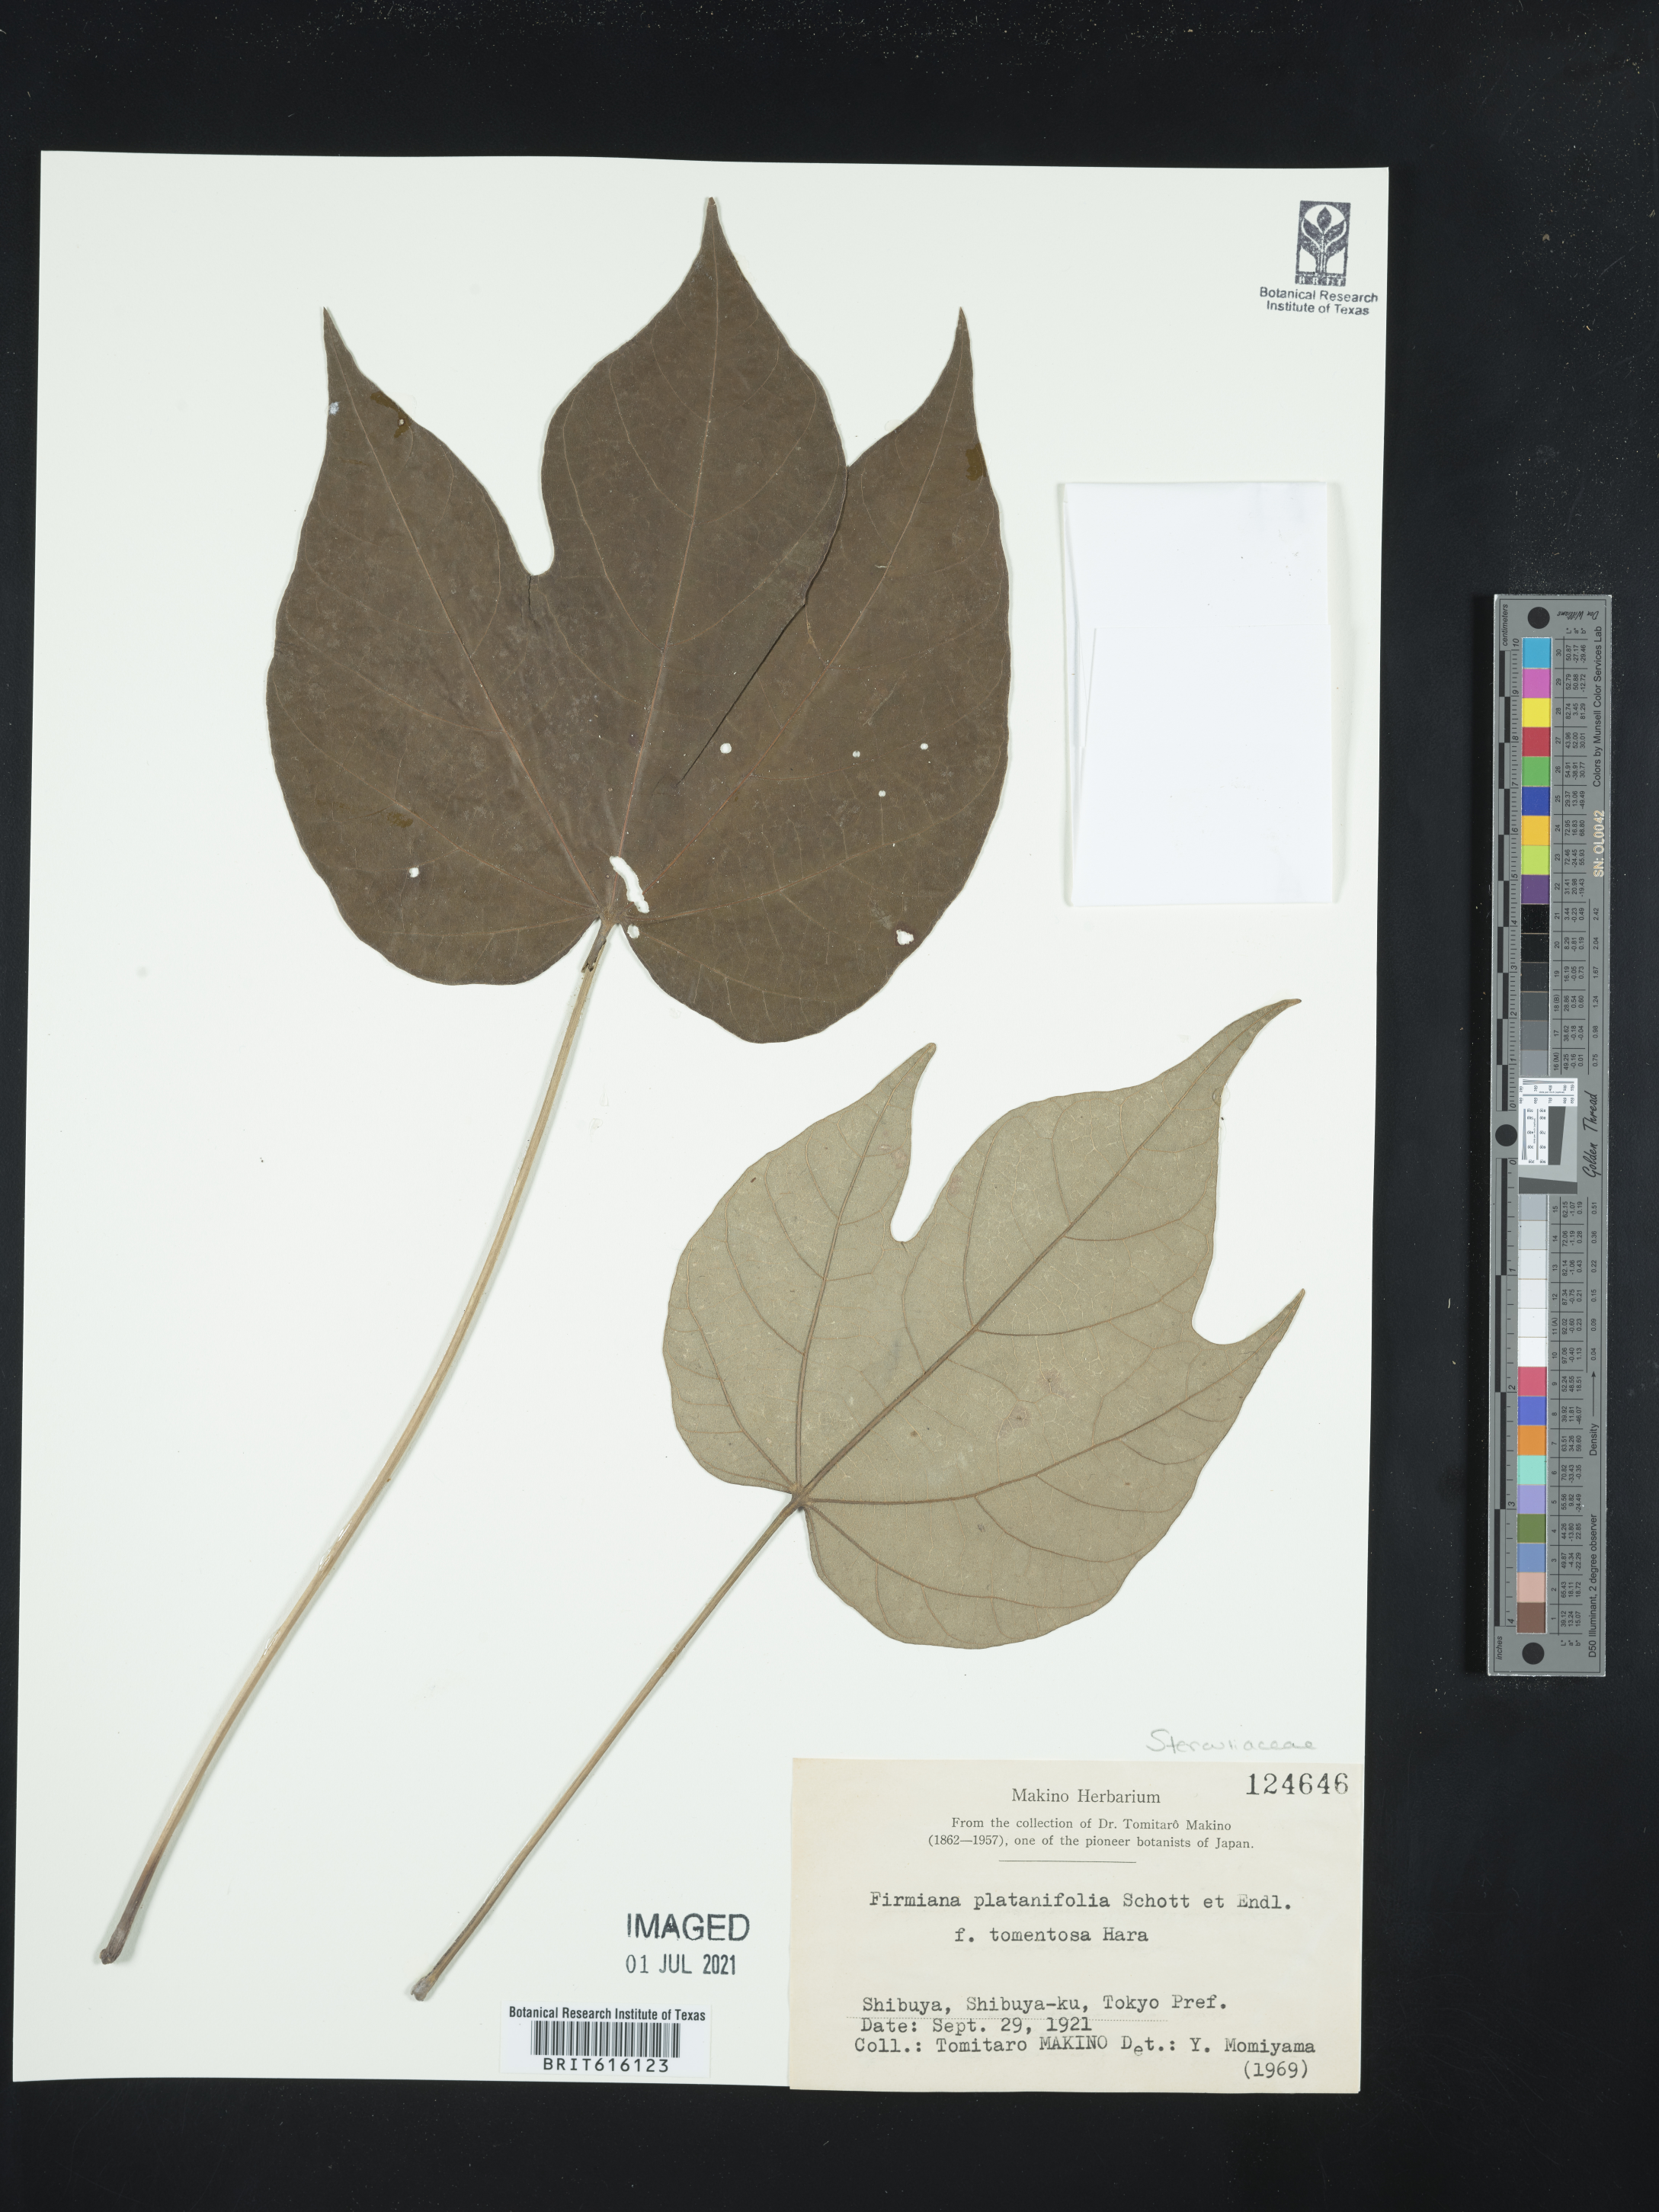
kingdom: Plantae
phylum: Tracheophyta
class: Magnoliopsida
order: Malvales
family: Malvaceae
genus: Firmiana
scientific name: Firmiana simplex
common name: Chinese parasoltree
